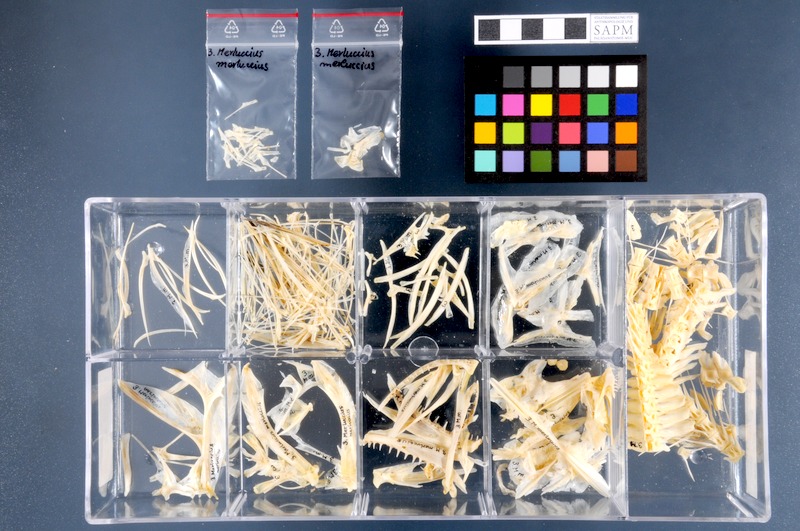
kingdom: Animalia
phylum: Chordata
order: Gadiformes
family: Merlucciidae
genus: Merluccius
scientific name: Merluccius merluccius
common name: European hake
